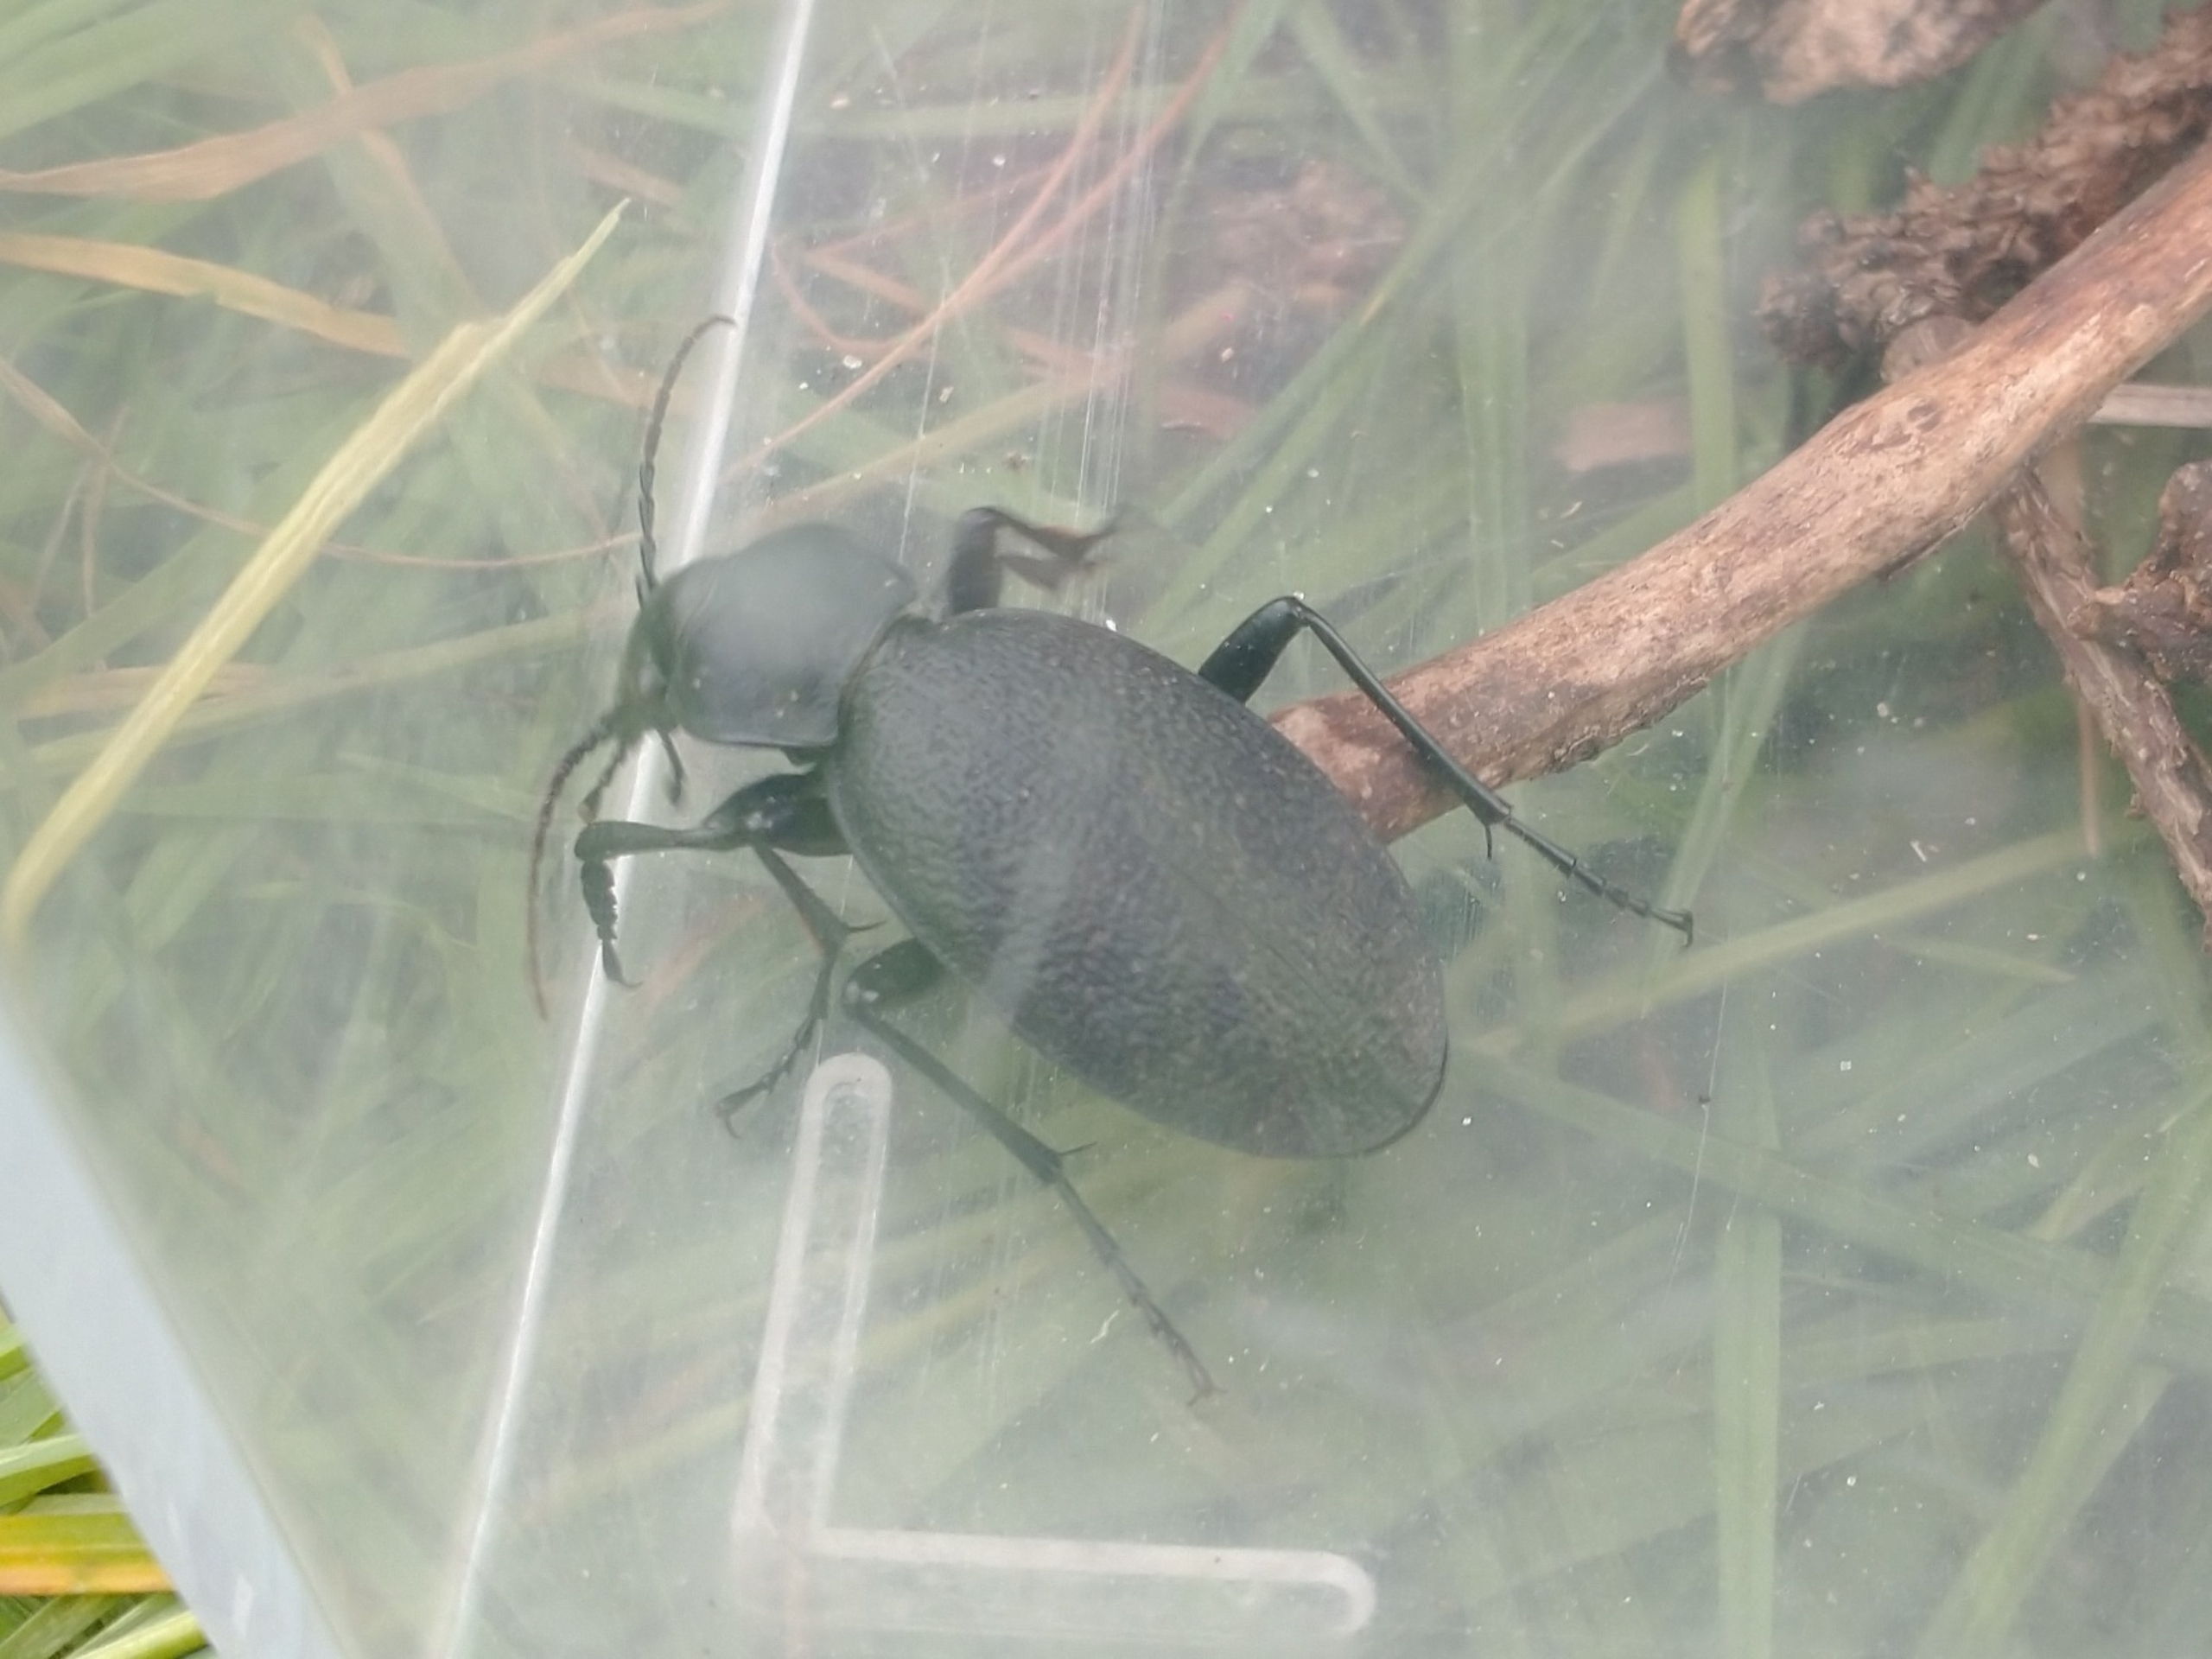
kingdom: Animalia
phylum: Arthropoda
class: Insecta
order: Coleoptera
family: Carabidae
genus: Carabus
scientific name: Carabus coriaceus
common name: Læderløber
